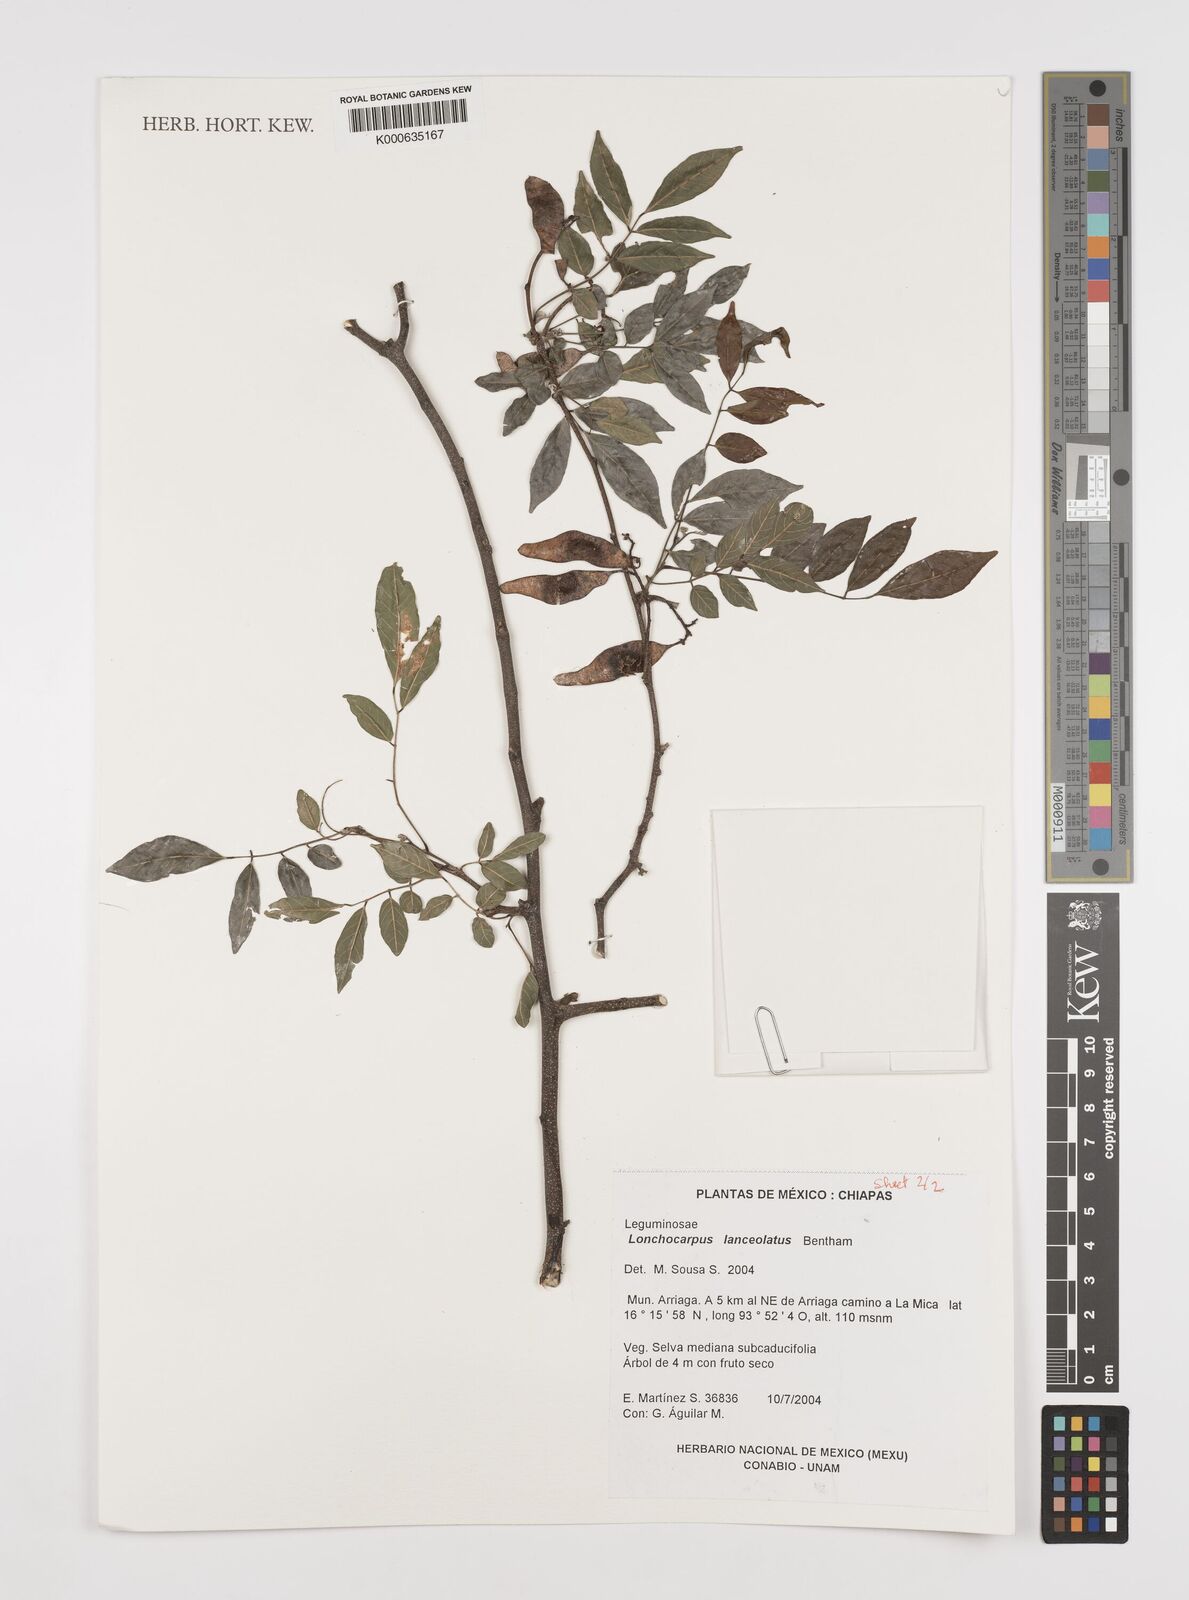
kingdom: Plantae
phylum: Tracheophyta
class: Magnoliopsida
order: Fabales
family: Fabaceae
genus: Lonchocarpus
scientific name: Lonchocarpus lanceolatus
